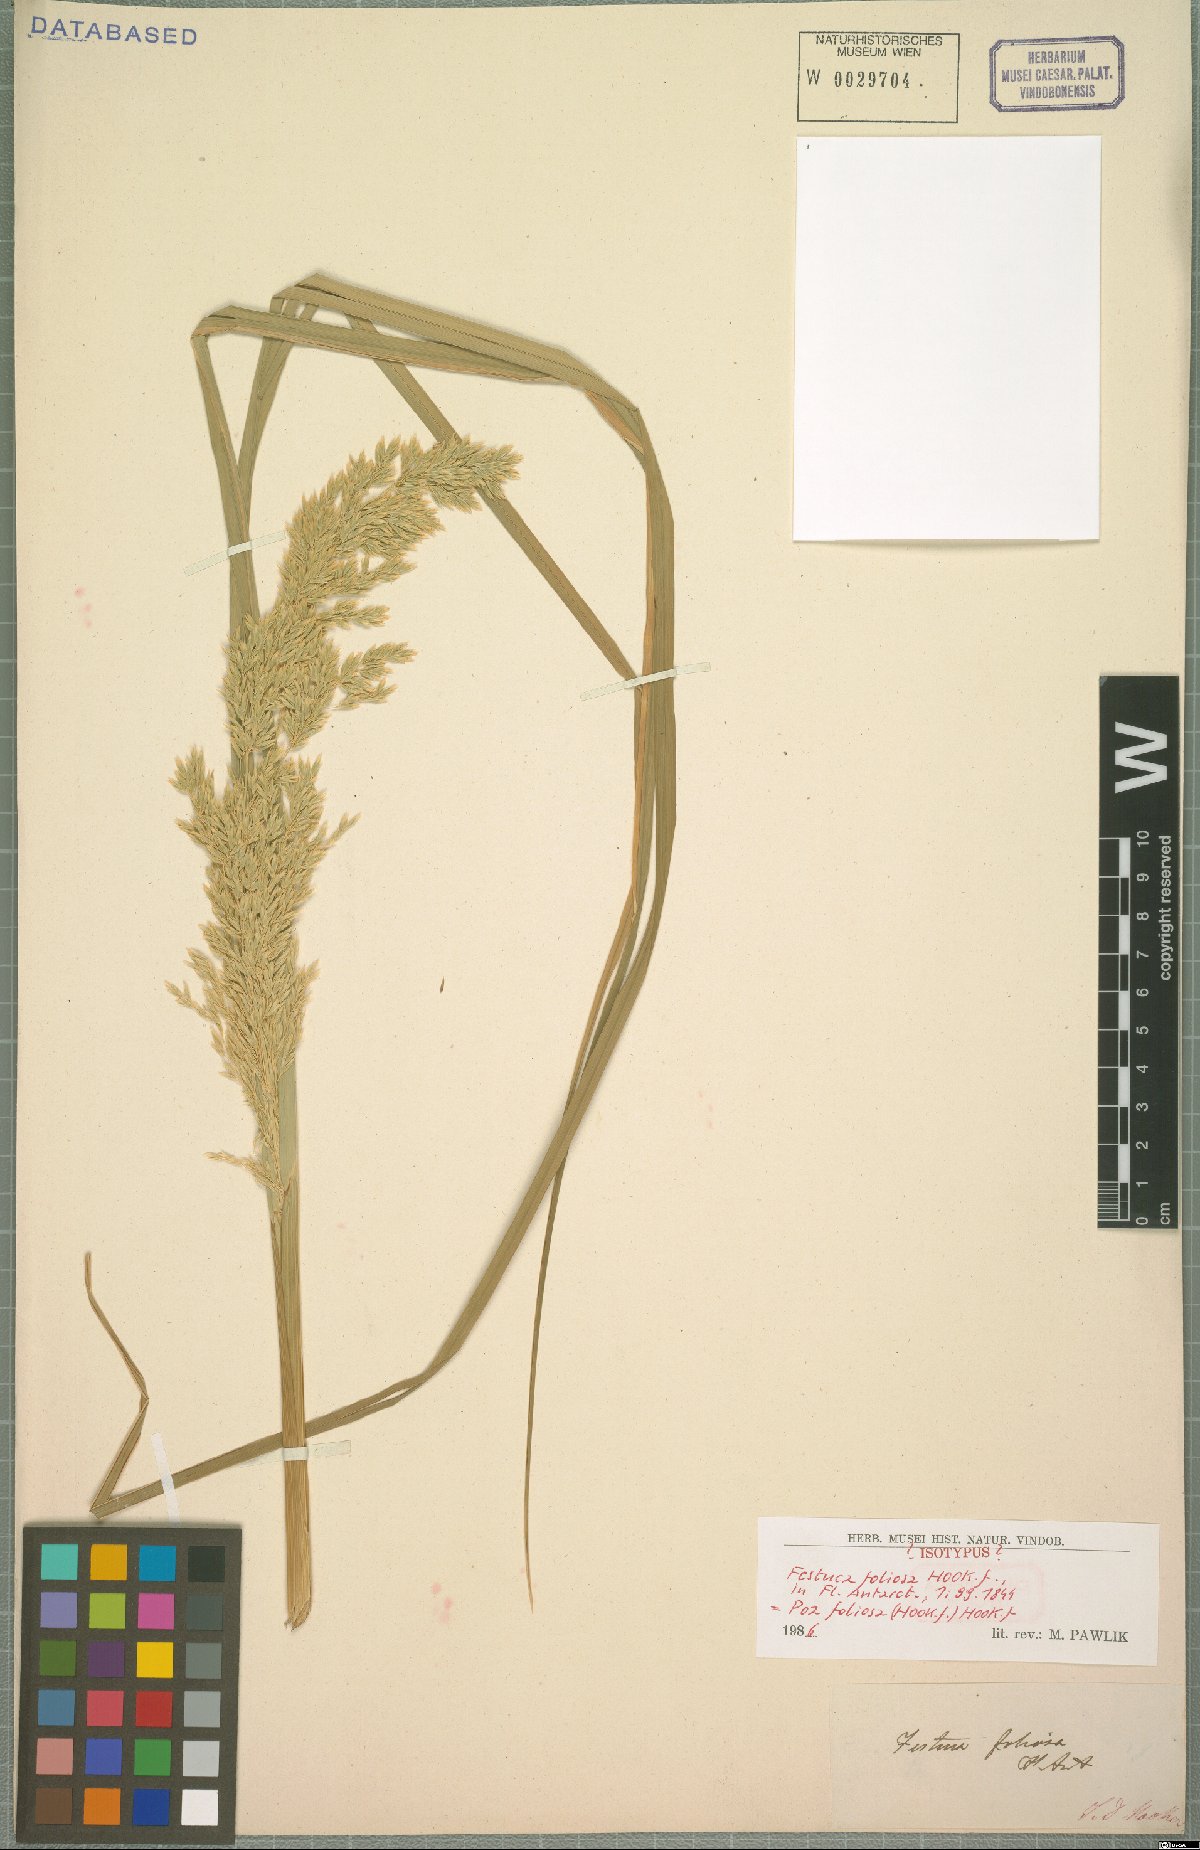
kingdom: Plantae
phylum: Tracheophyta
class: Liliopsida
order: Poales
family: Poaceae
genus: Poa
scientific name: Poa foliosa
